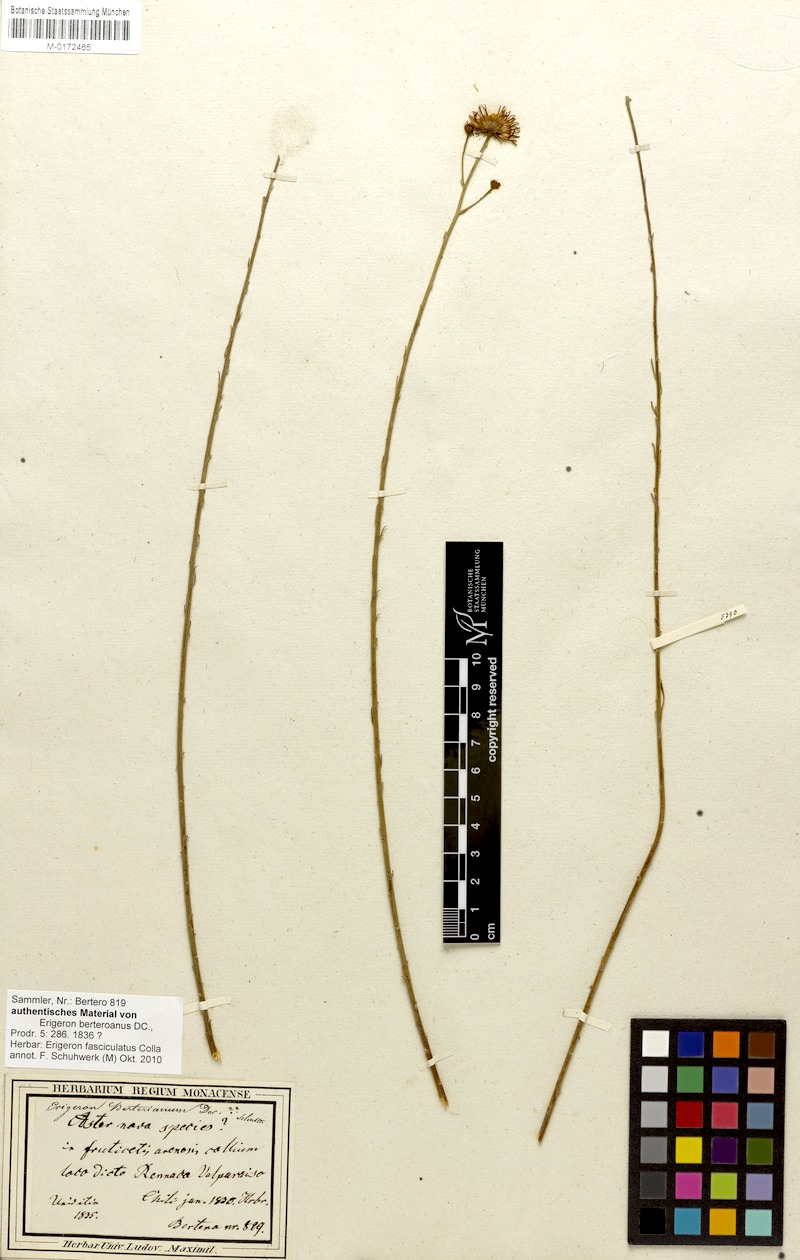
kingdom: Plantae
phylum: Tracheophyta
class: Magnoliopsida
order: Asterales
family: Asteraceae
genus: Erigeron
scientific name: Erigeron fasciculatus
